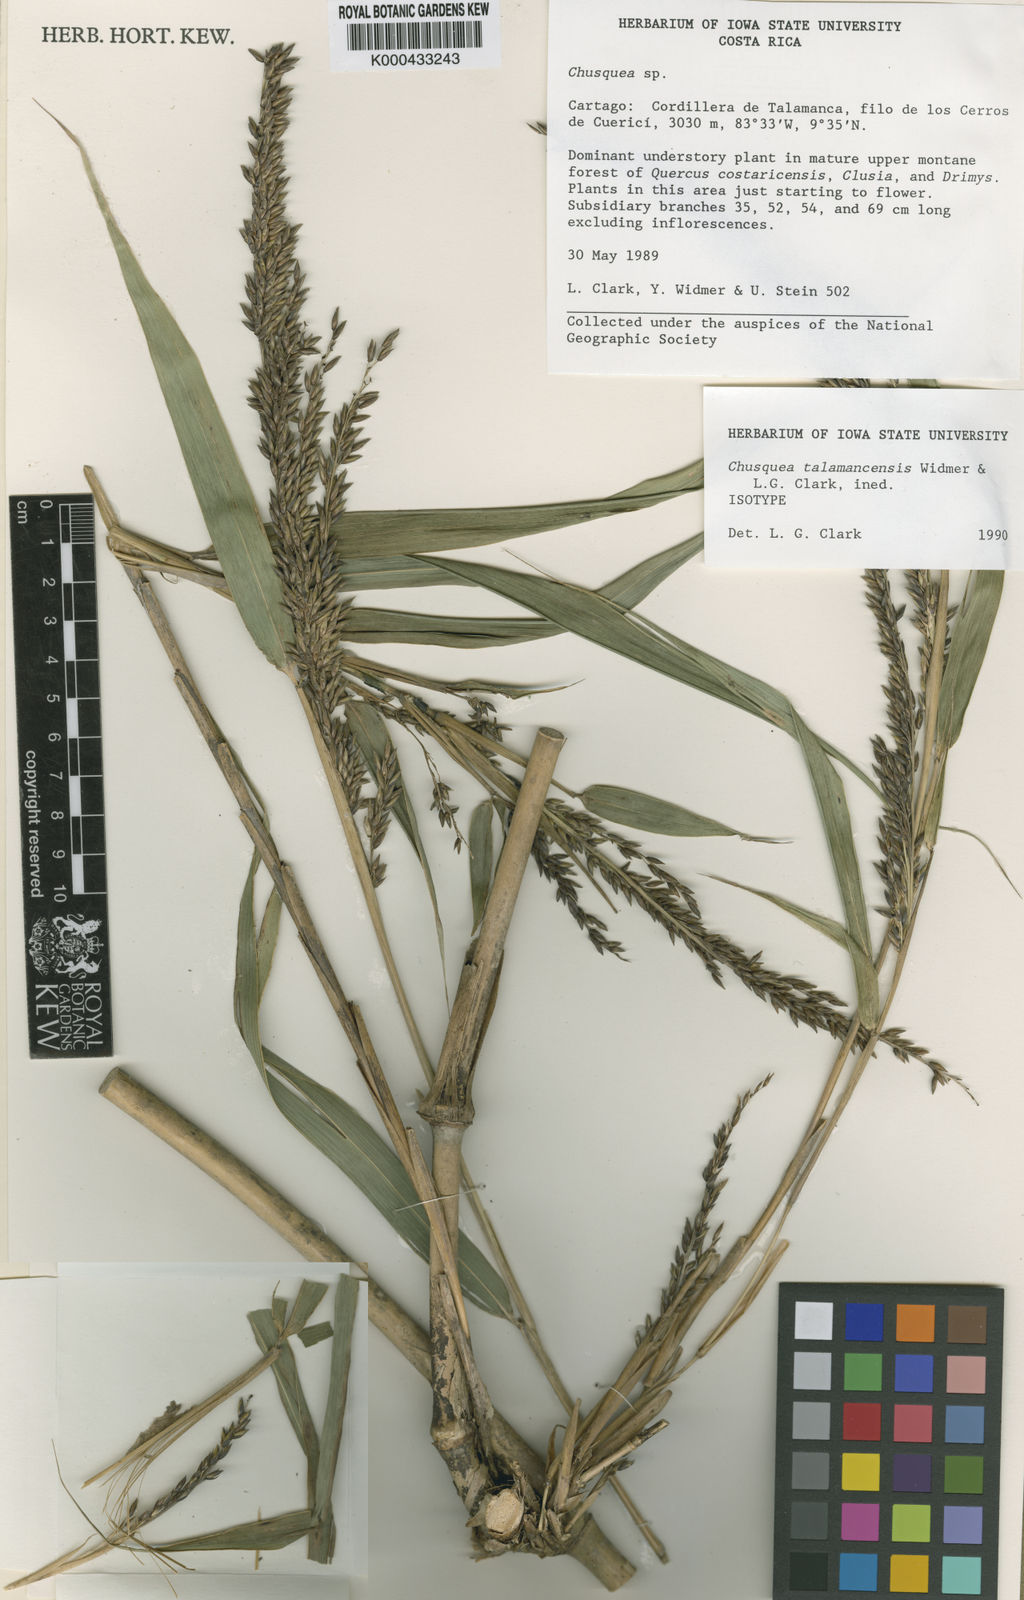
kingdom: Plantae
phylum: Tracheophyta
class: Liliopsida
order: Poales
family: Poaceae
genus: Chusquea
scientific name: Chusquea talamancensis
